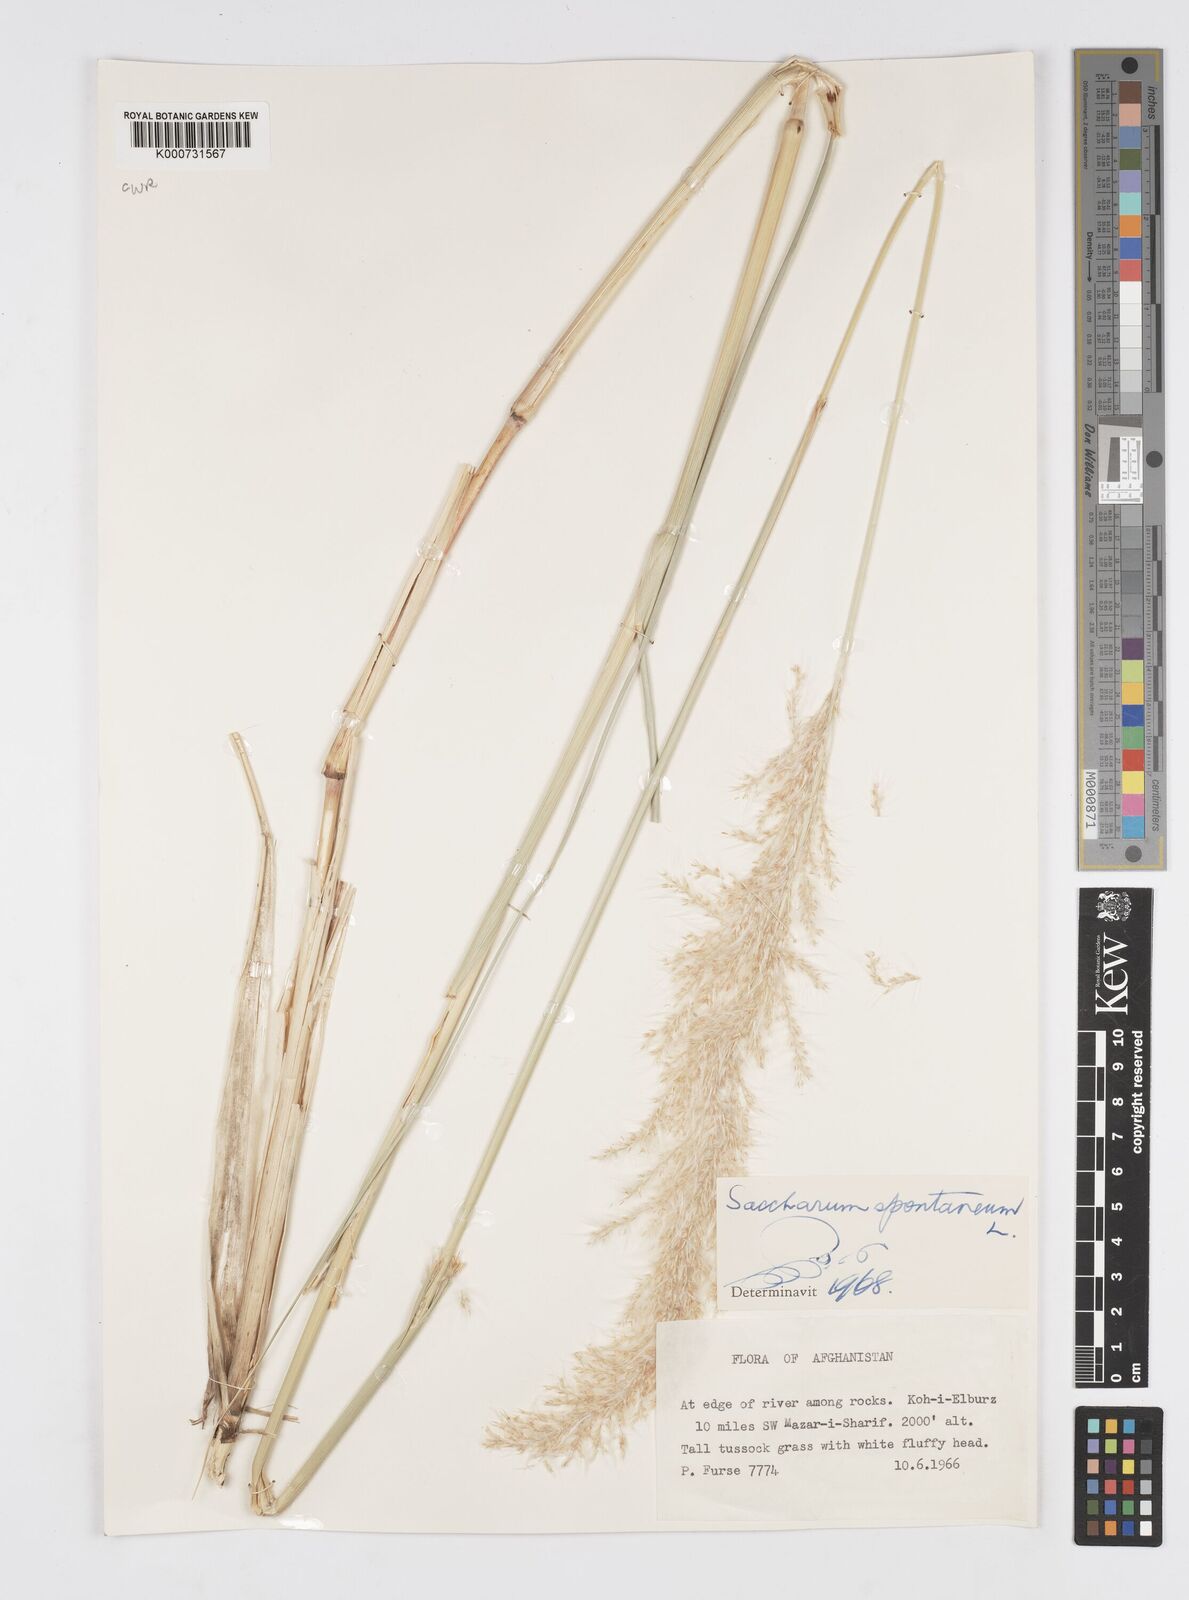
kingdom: Plantae
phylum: Tracheophyta
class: Liliopsida
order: Poales
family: Poaceae
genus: Saccharum
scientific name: Saccharum spontaneum
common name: Wild sugarcane
